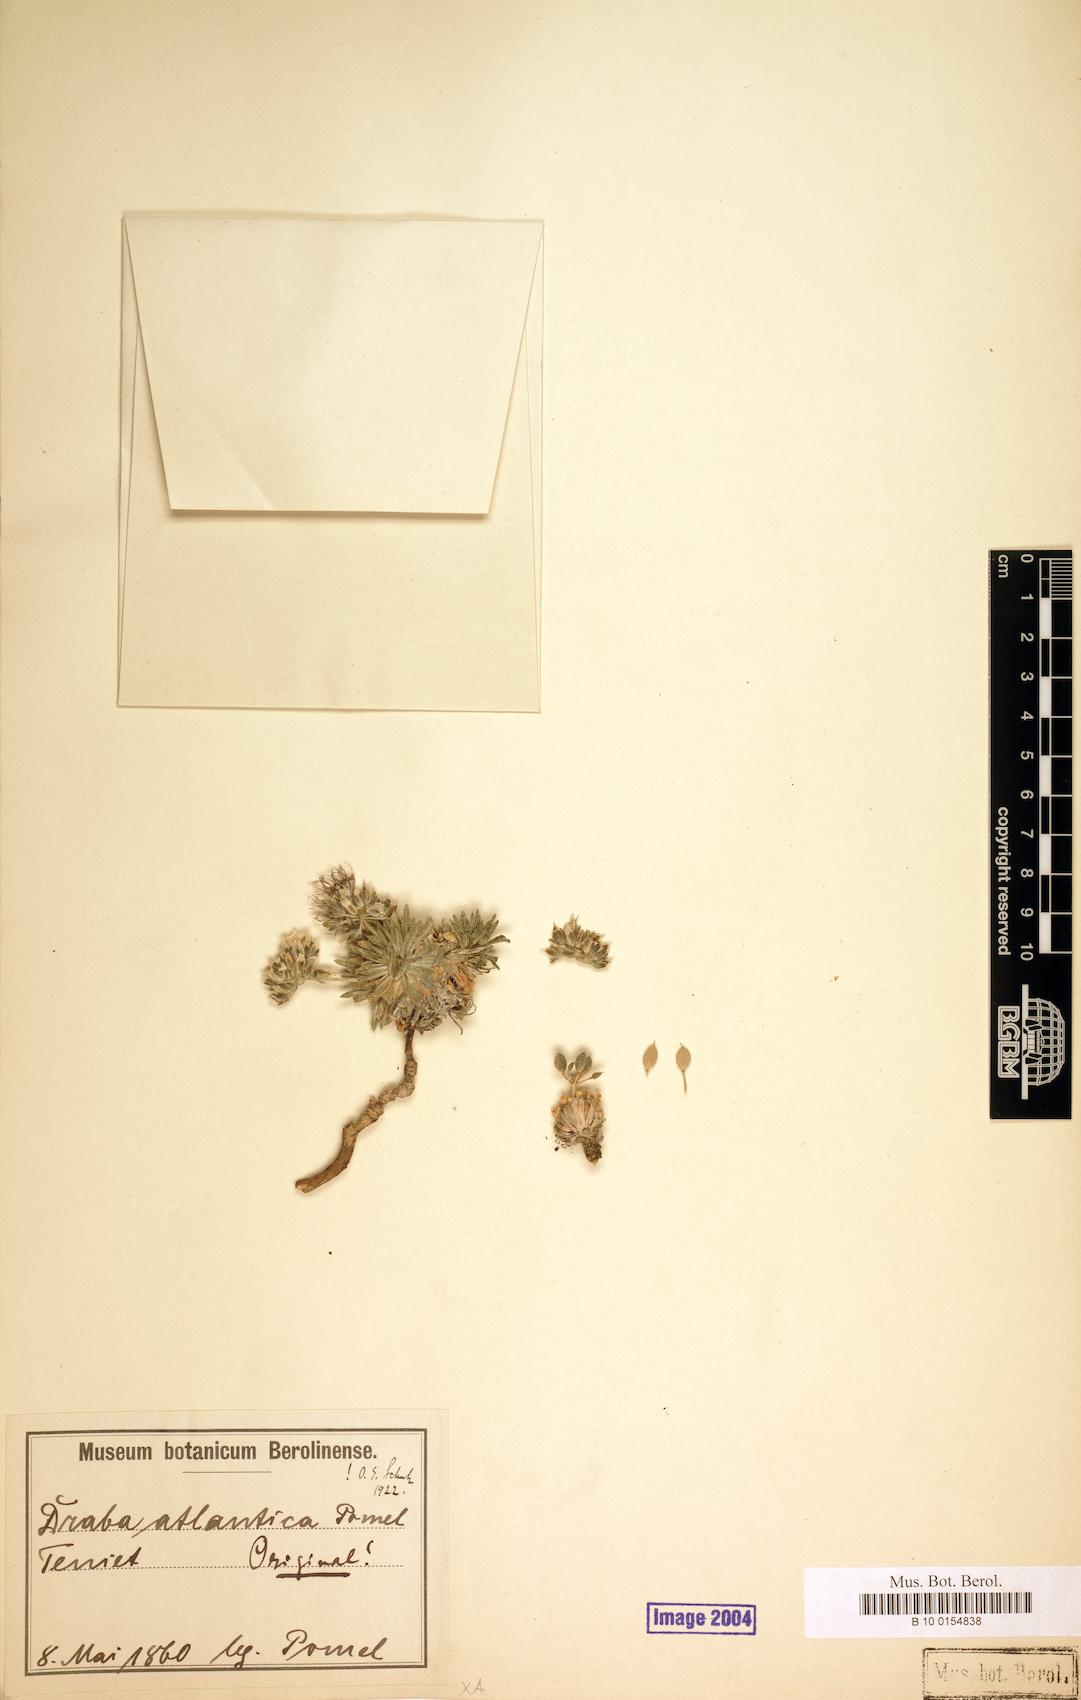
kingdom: Plantae
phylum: Tracheophyta
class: Magnoliopsida
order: Brassicales
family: Brassicaceae
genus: Draba
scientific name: Draba hispanica
